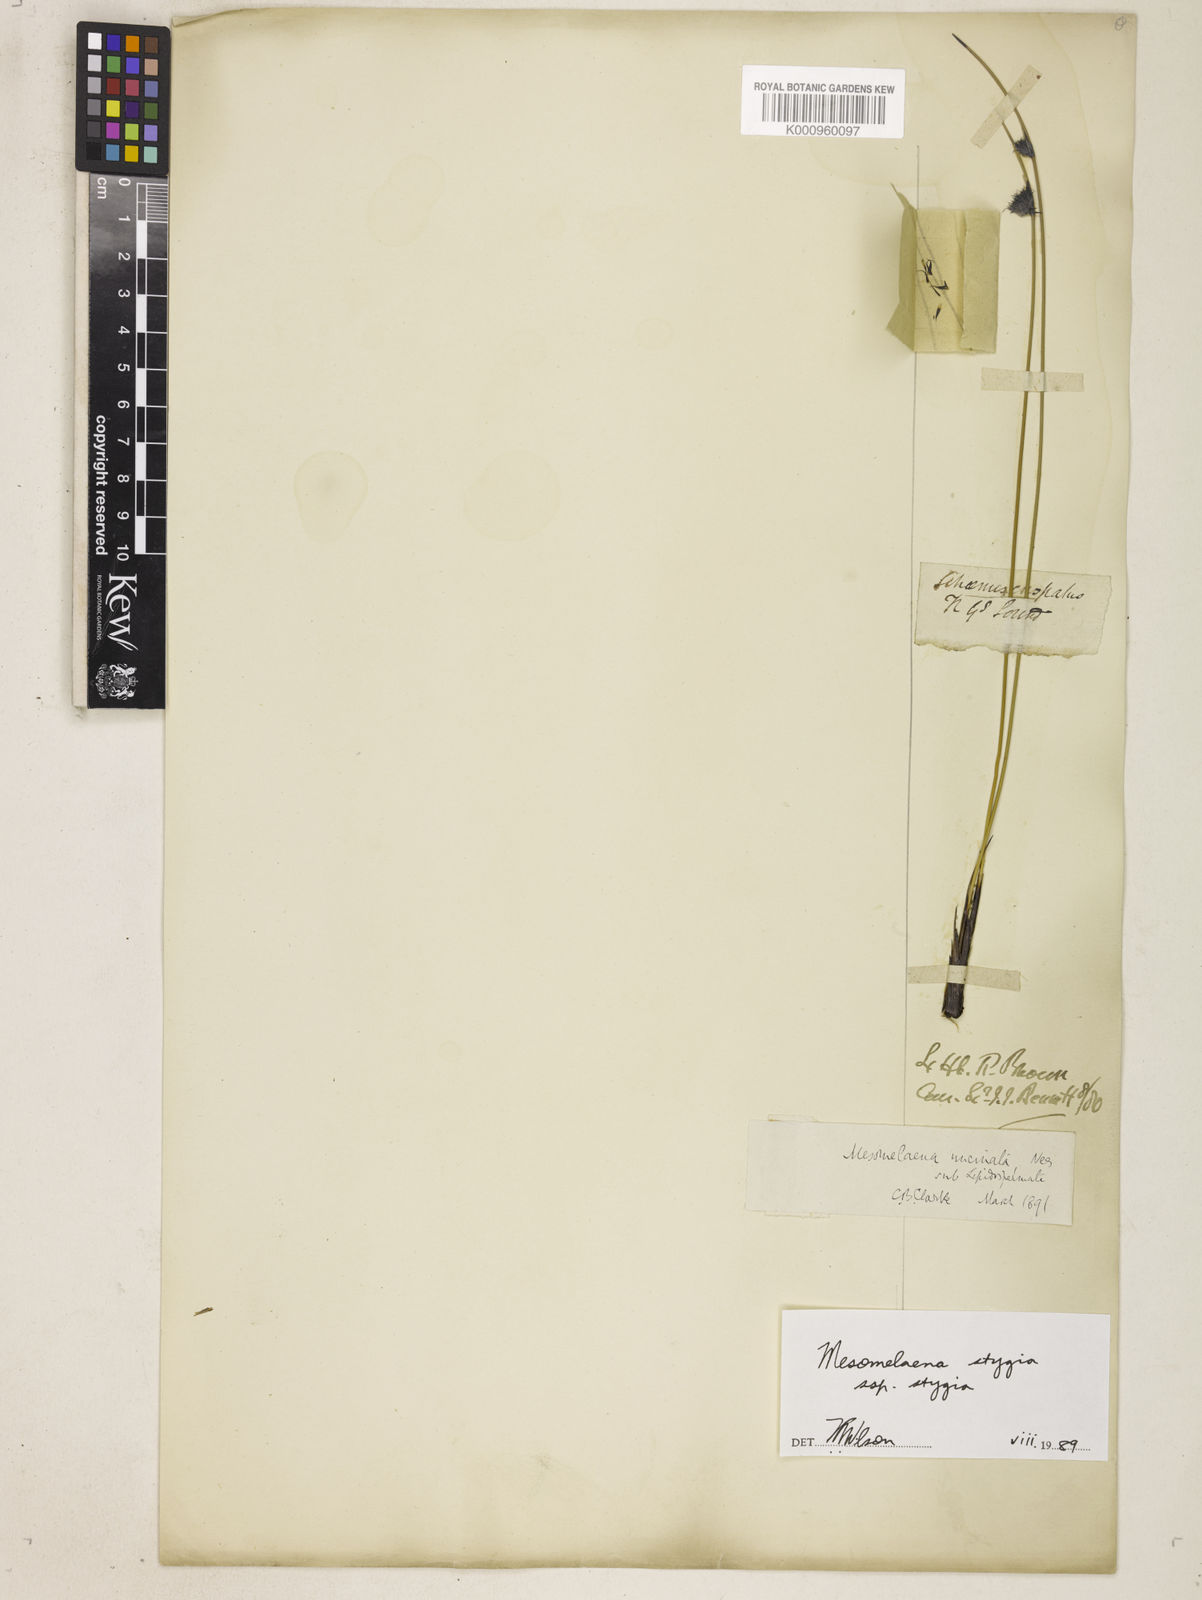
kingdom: Plantae
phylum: Tracheophyta
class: Liliopsida
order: Poales
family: Cyperaceae
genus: Mesomelaena
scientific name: Mesomelaena stygia
